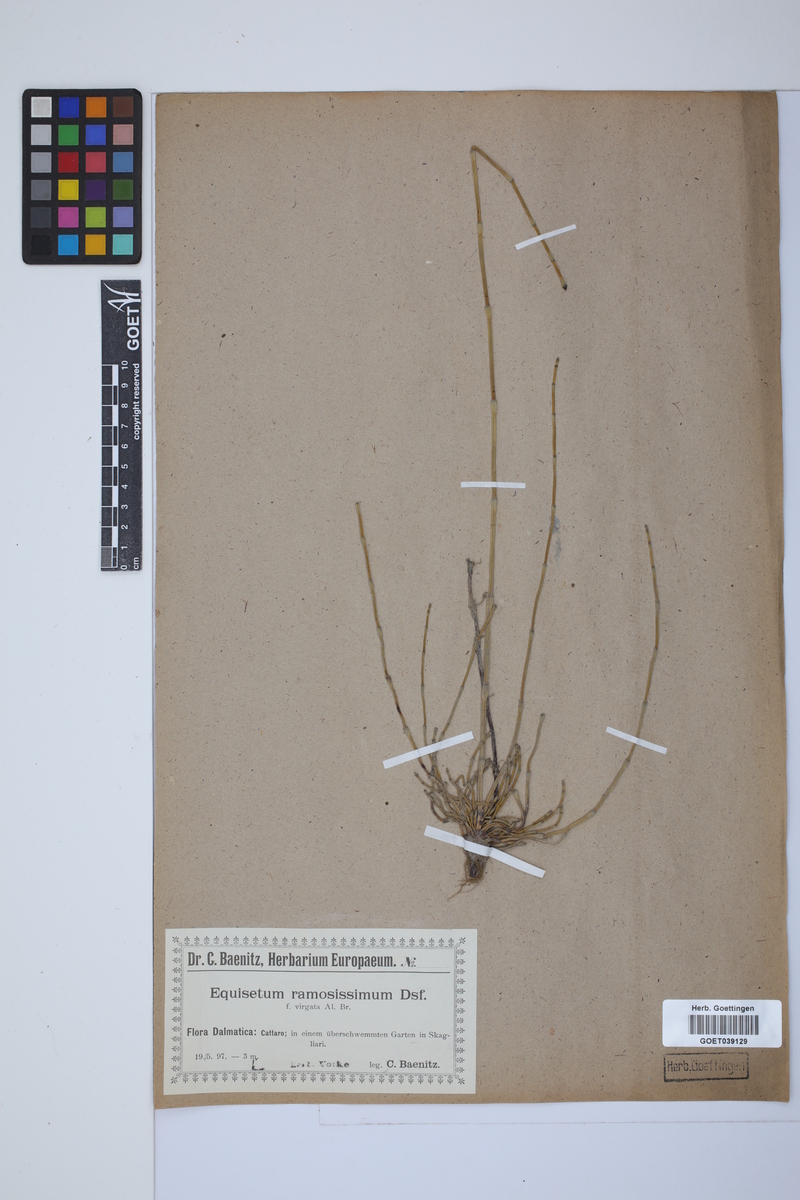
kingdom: Plantae
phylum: Tracheophyta
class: Polypodiopsida
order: Equisetales
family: Equisetaceae
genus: Equisetum
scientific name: Equisetum giganteum
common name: Giant horsetail
